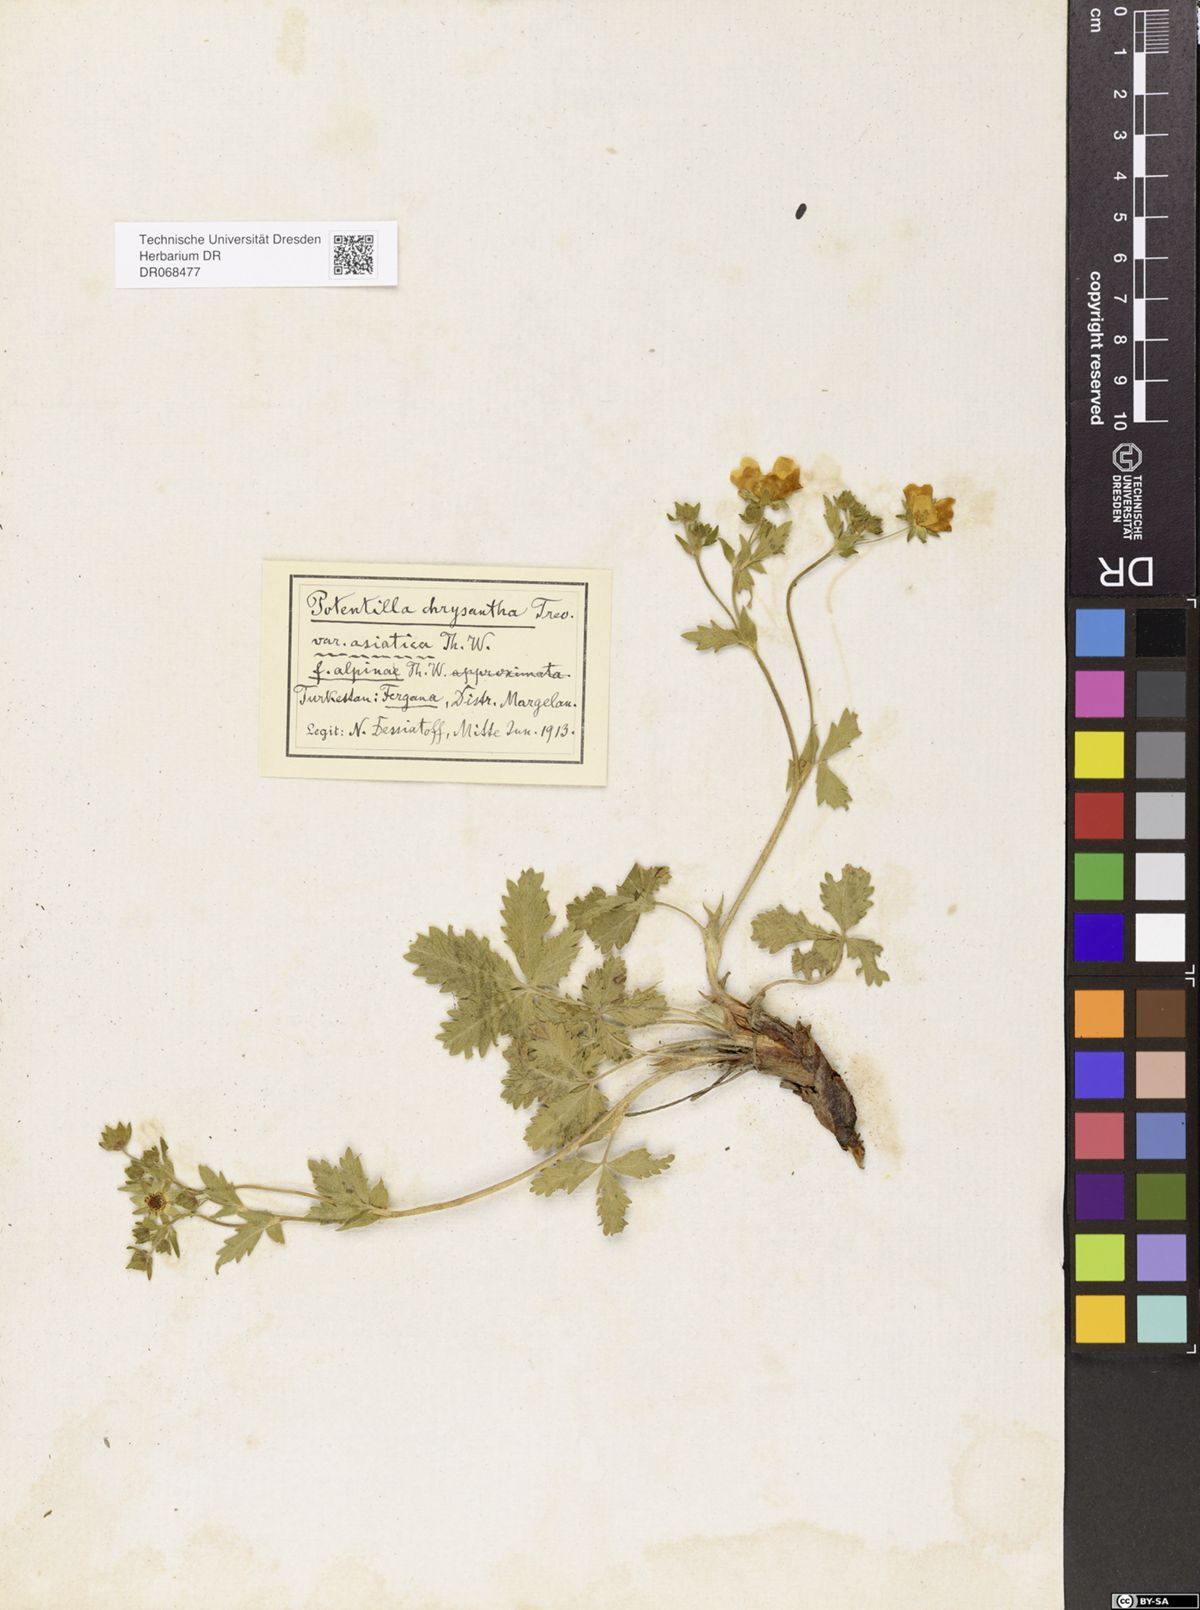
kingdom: Plantae
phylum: Tracheophyta
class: Magnoliopsida
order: Rosales
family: Rosaceae
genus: Potentilla
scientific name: Potentilla asiatica
